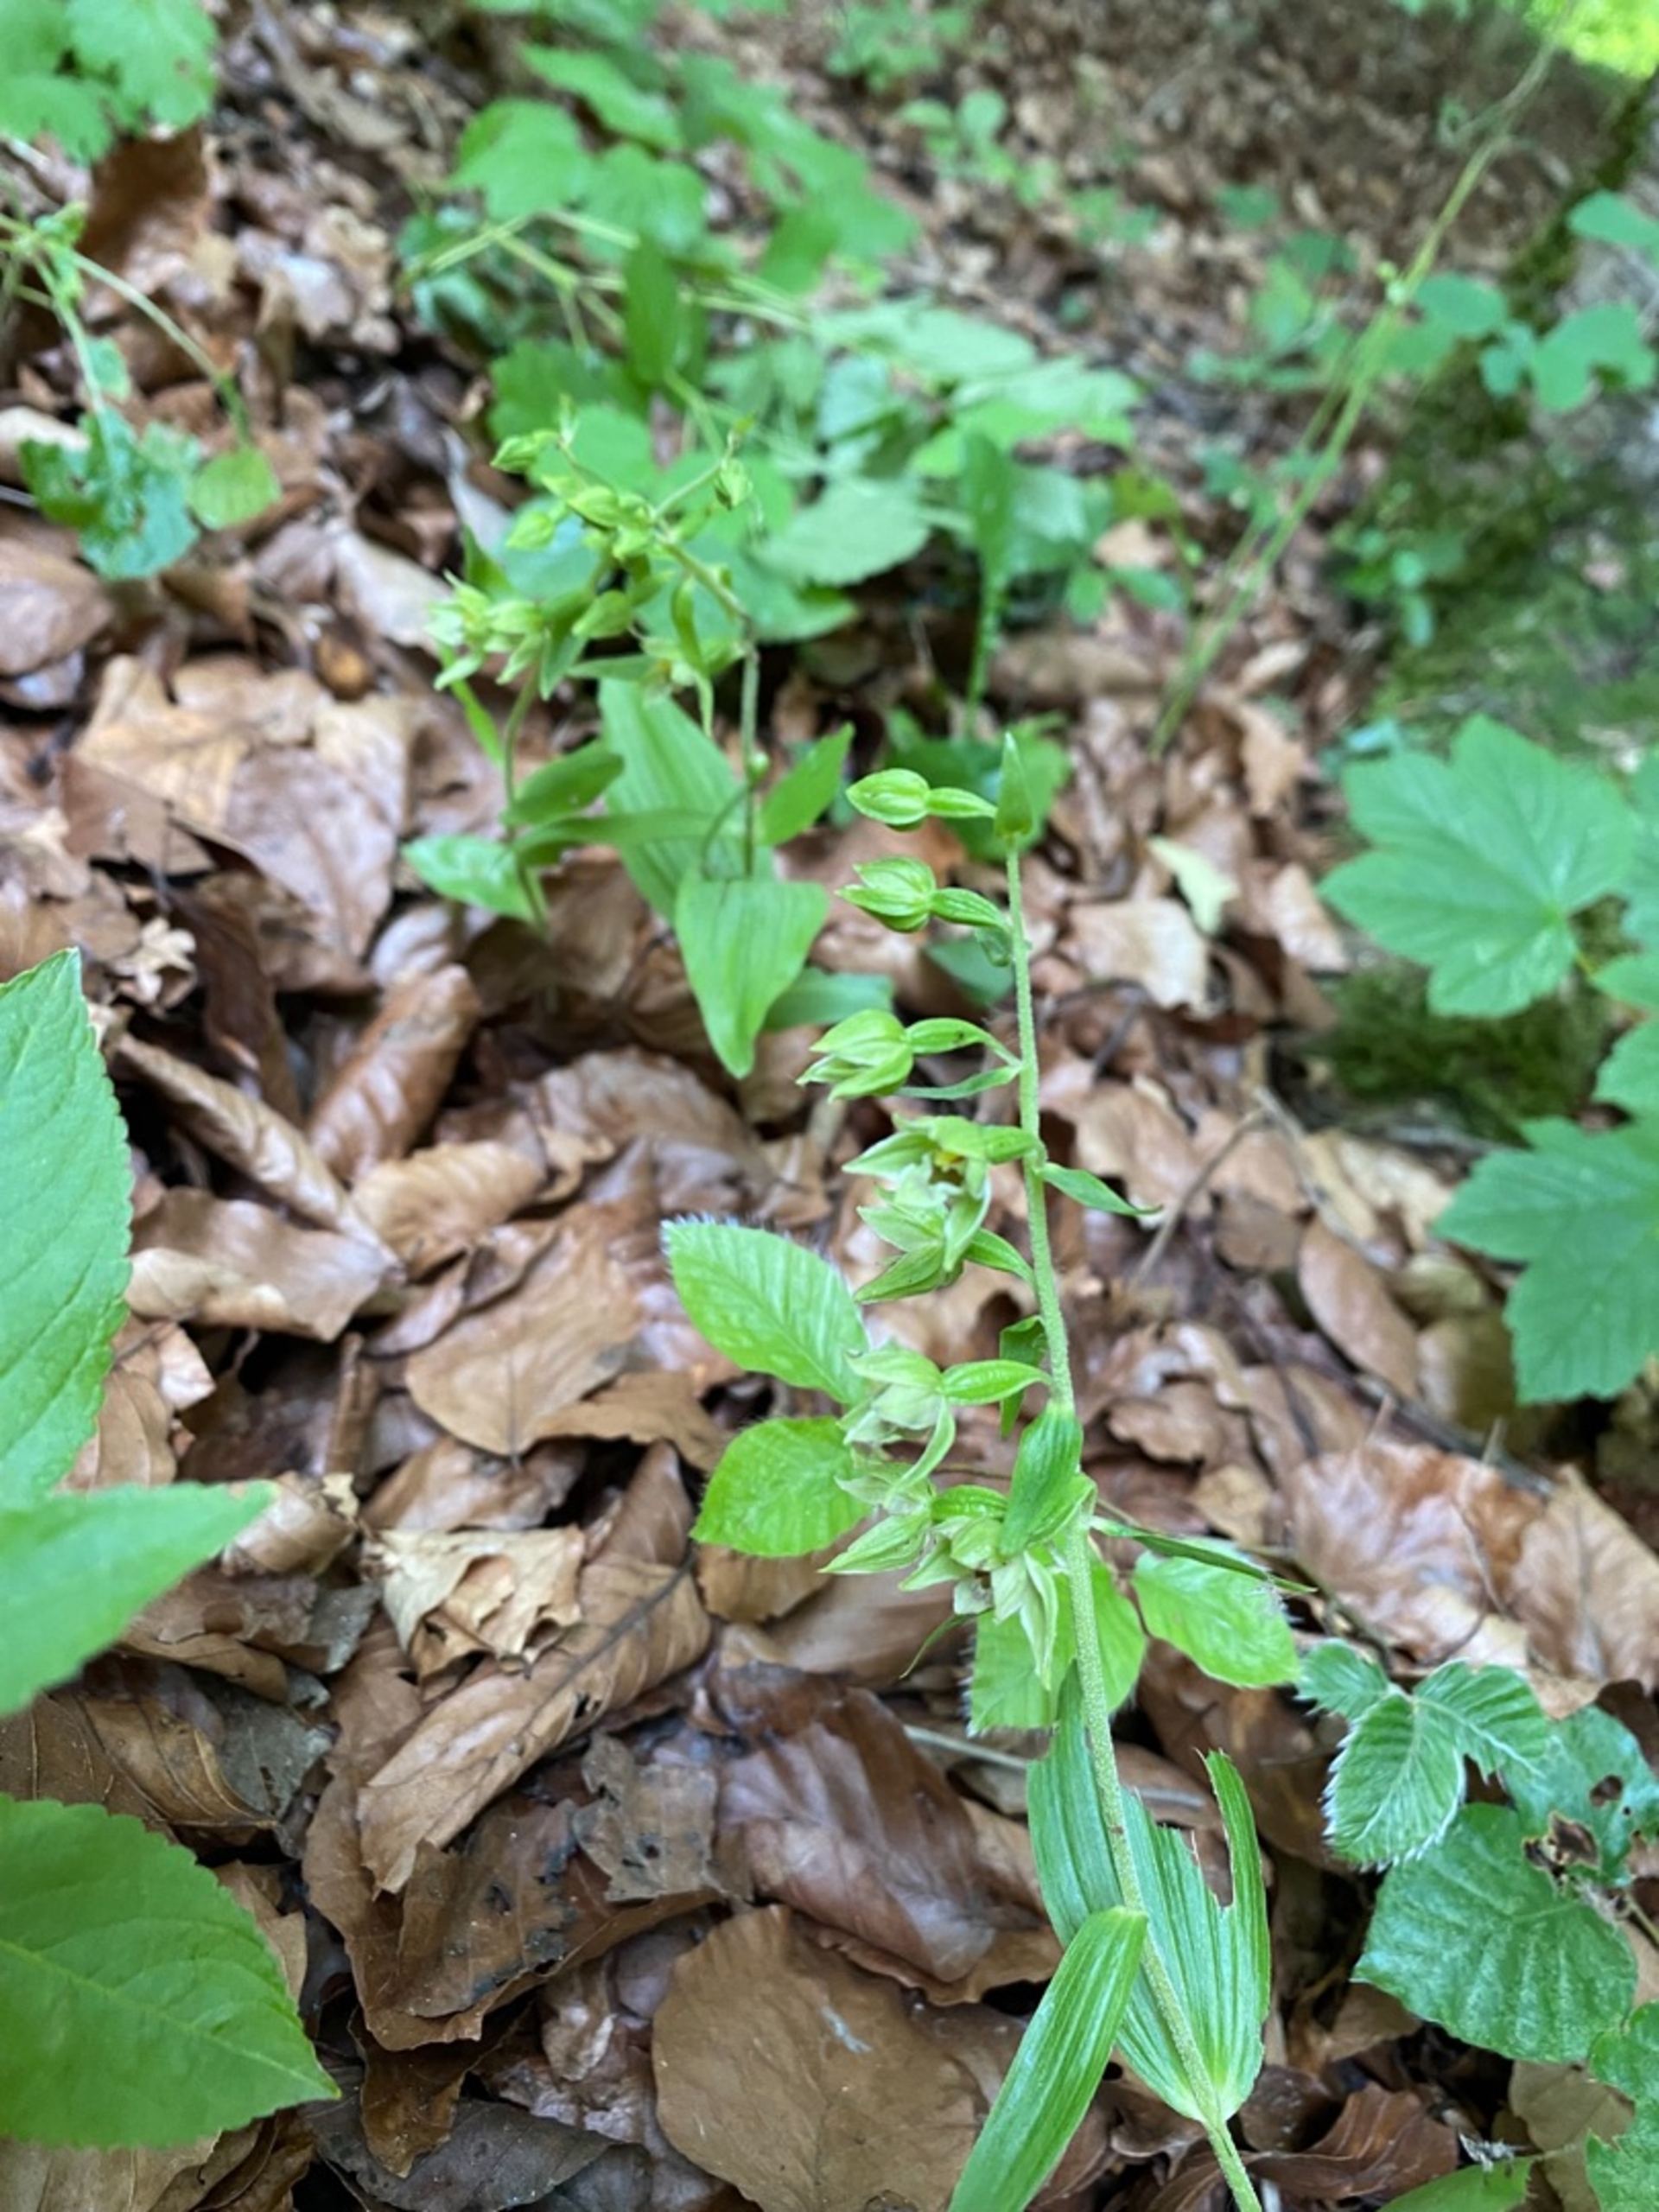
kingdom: Plantae
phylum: Tracheophyta
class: Liliopsida
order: Asparagales
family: Orchidaceae
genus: Epipactis
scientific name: Epipactis leptochila
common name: Storblomstret hullæbe
